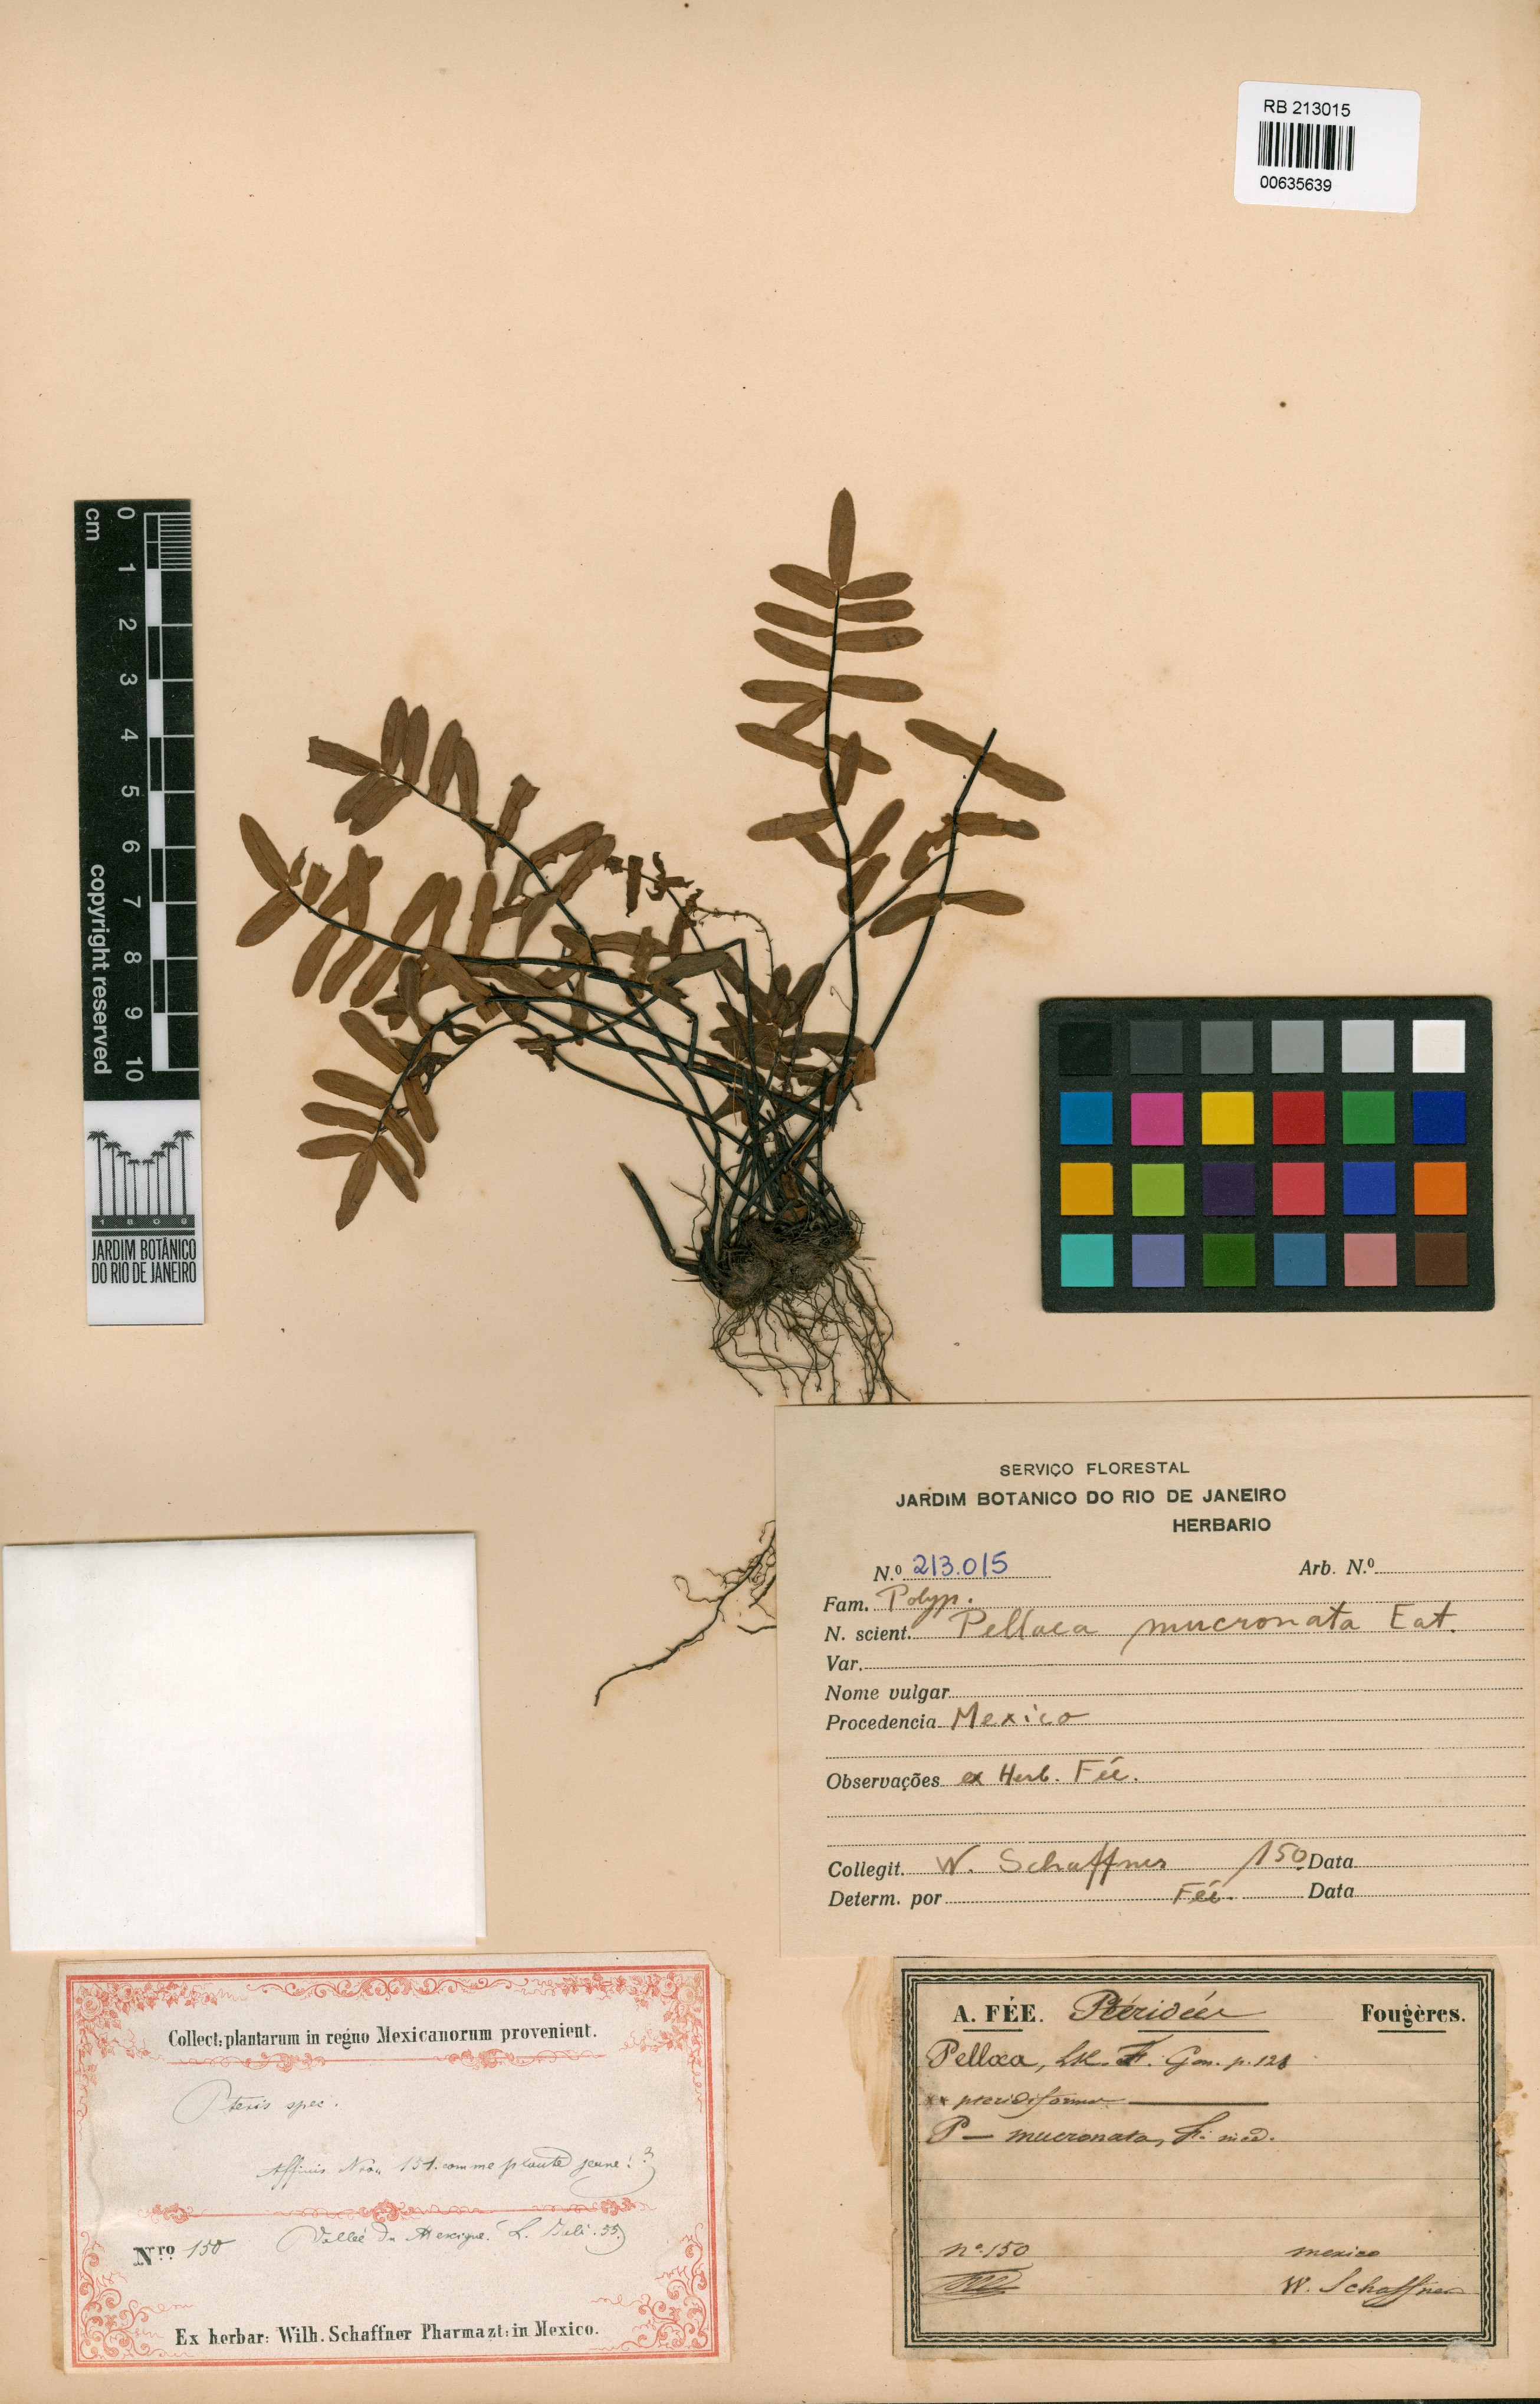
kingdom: Plantae
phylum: Tracheophyta
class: Polypodiopsida
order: Polypodiales
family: Pteridaceae
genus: Pellaea
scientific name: Pellaea mucronata
